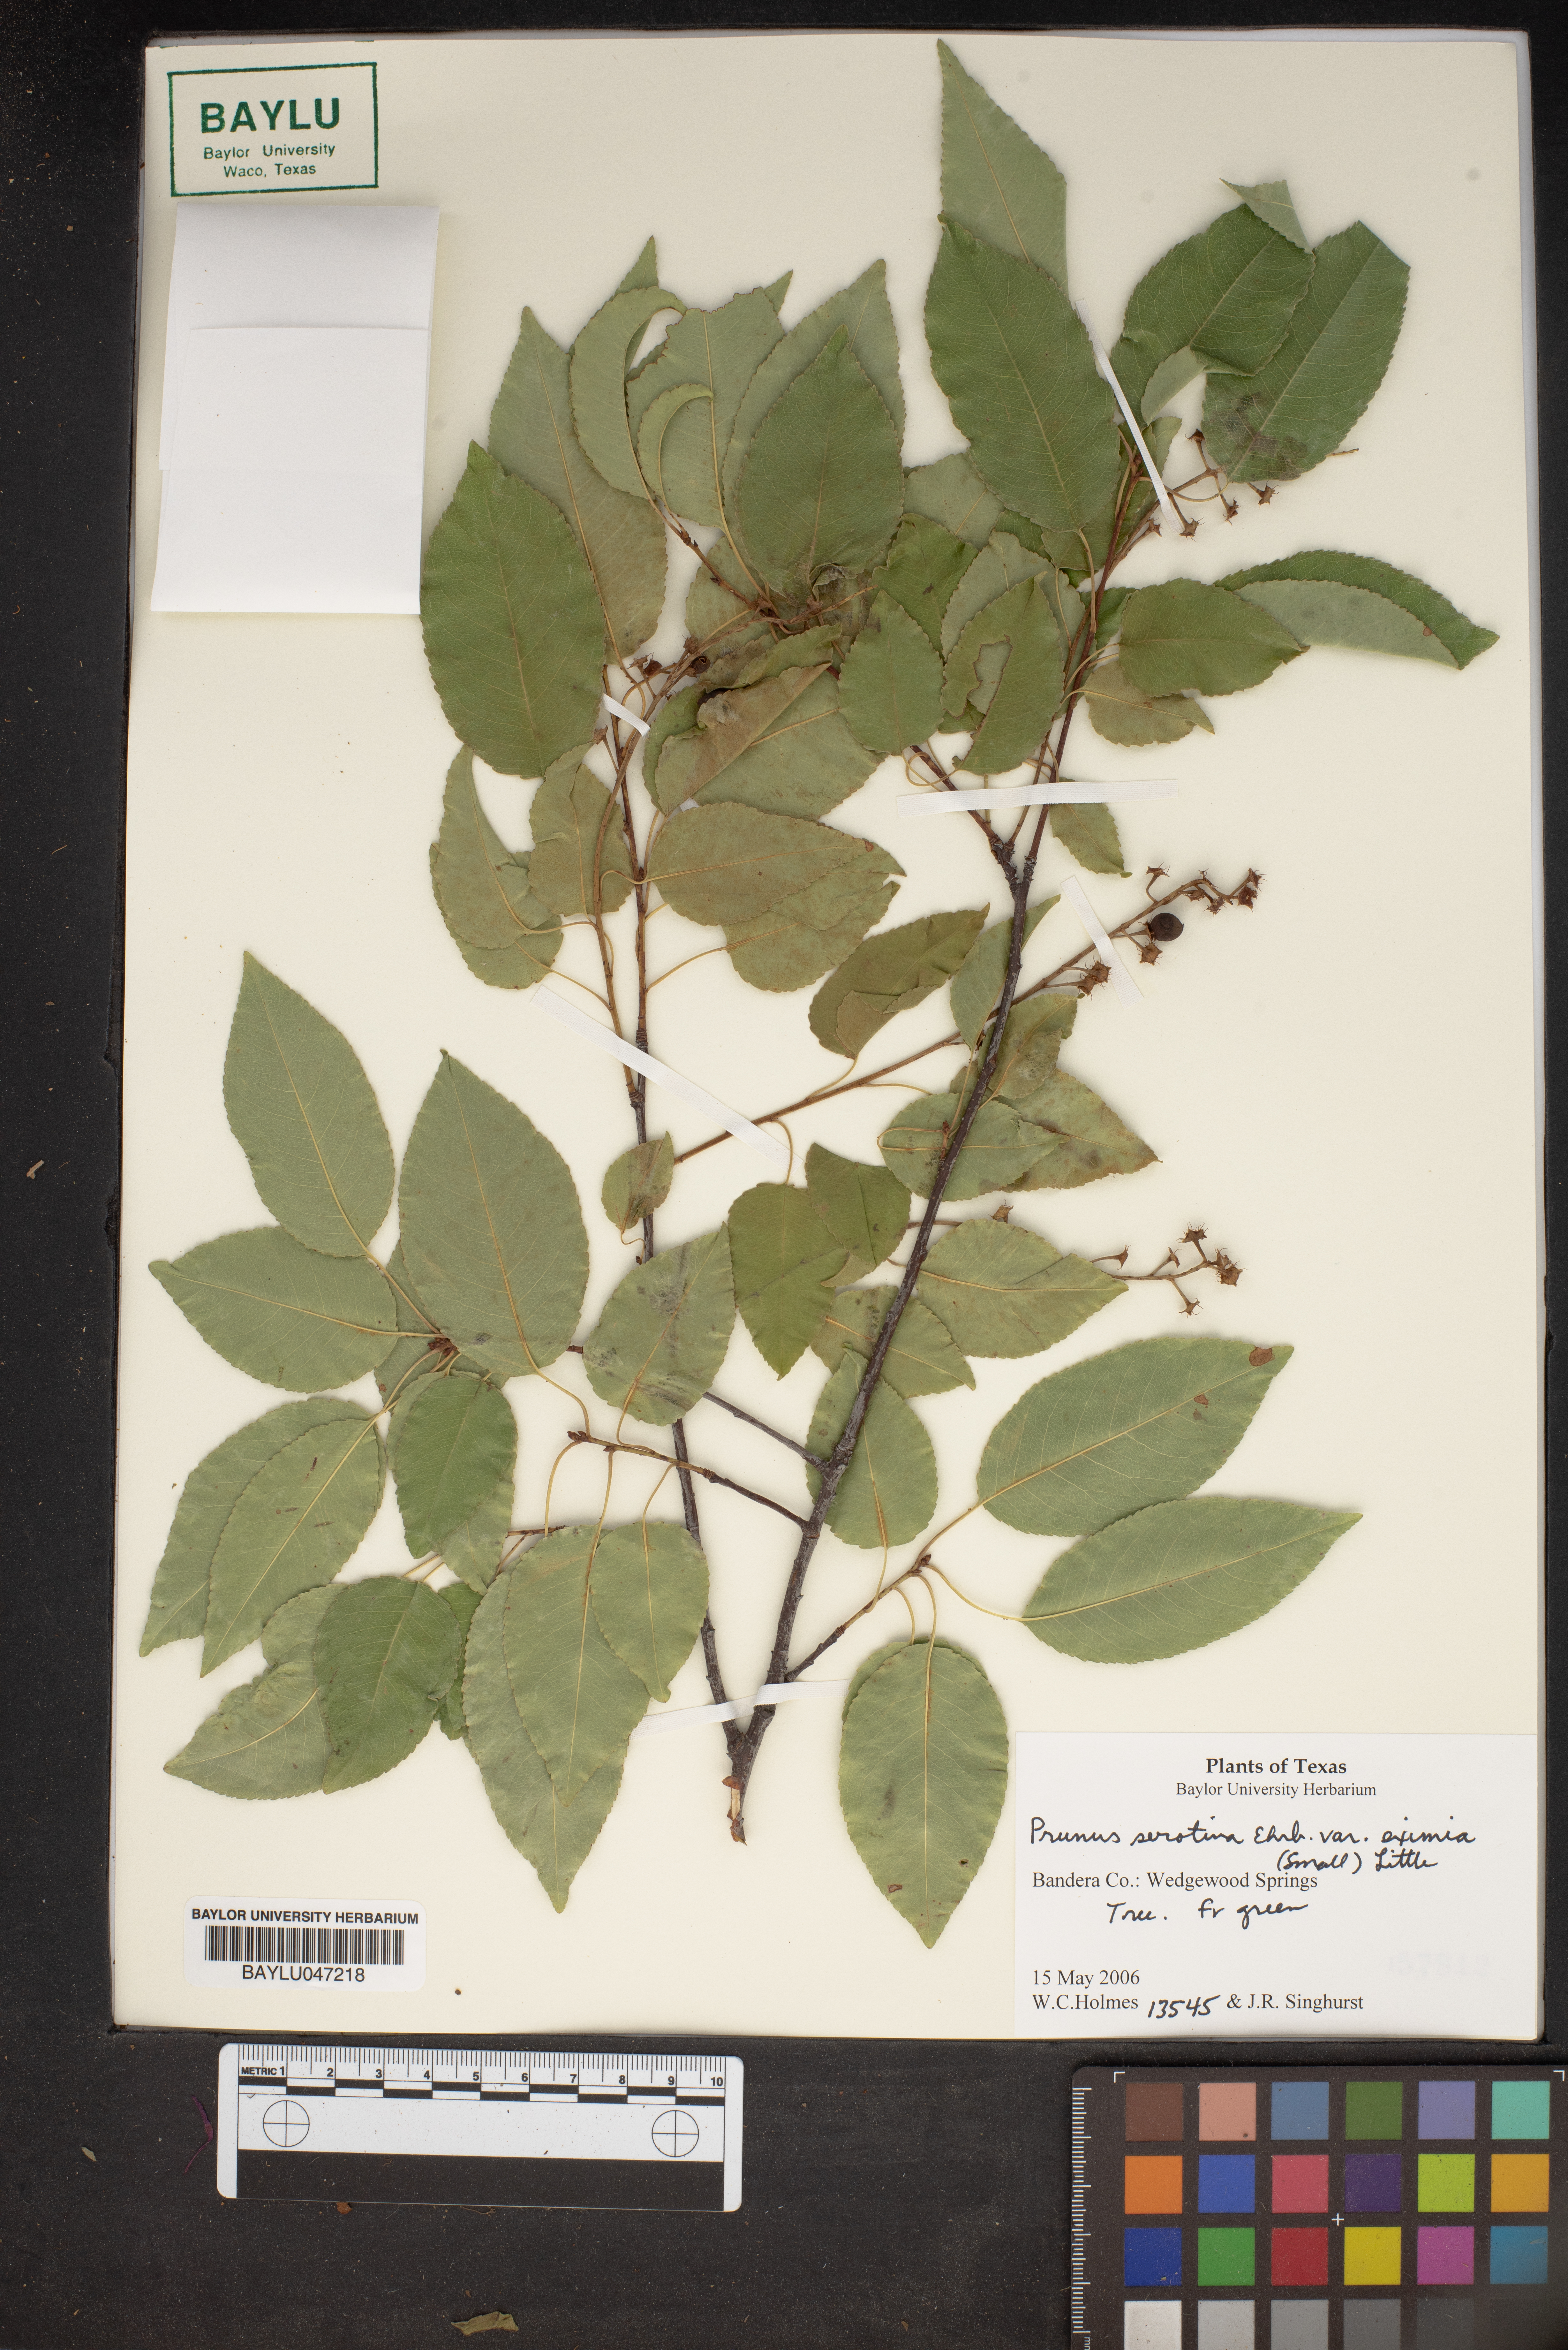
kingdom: Plantae
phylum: Tracheophyta
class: Magnoliopsida
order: Rosales
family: Rosaceae
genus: Prunus
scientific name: Prunus serotina
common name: Black cherry
